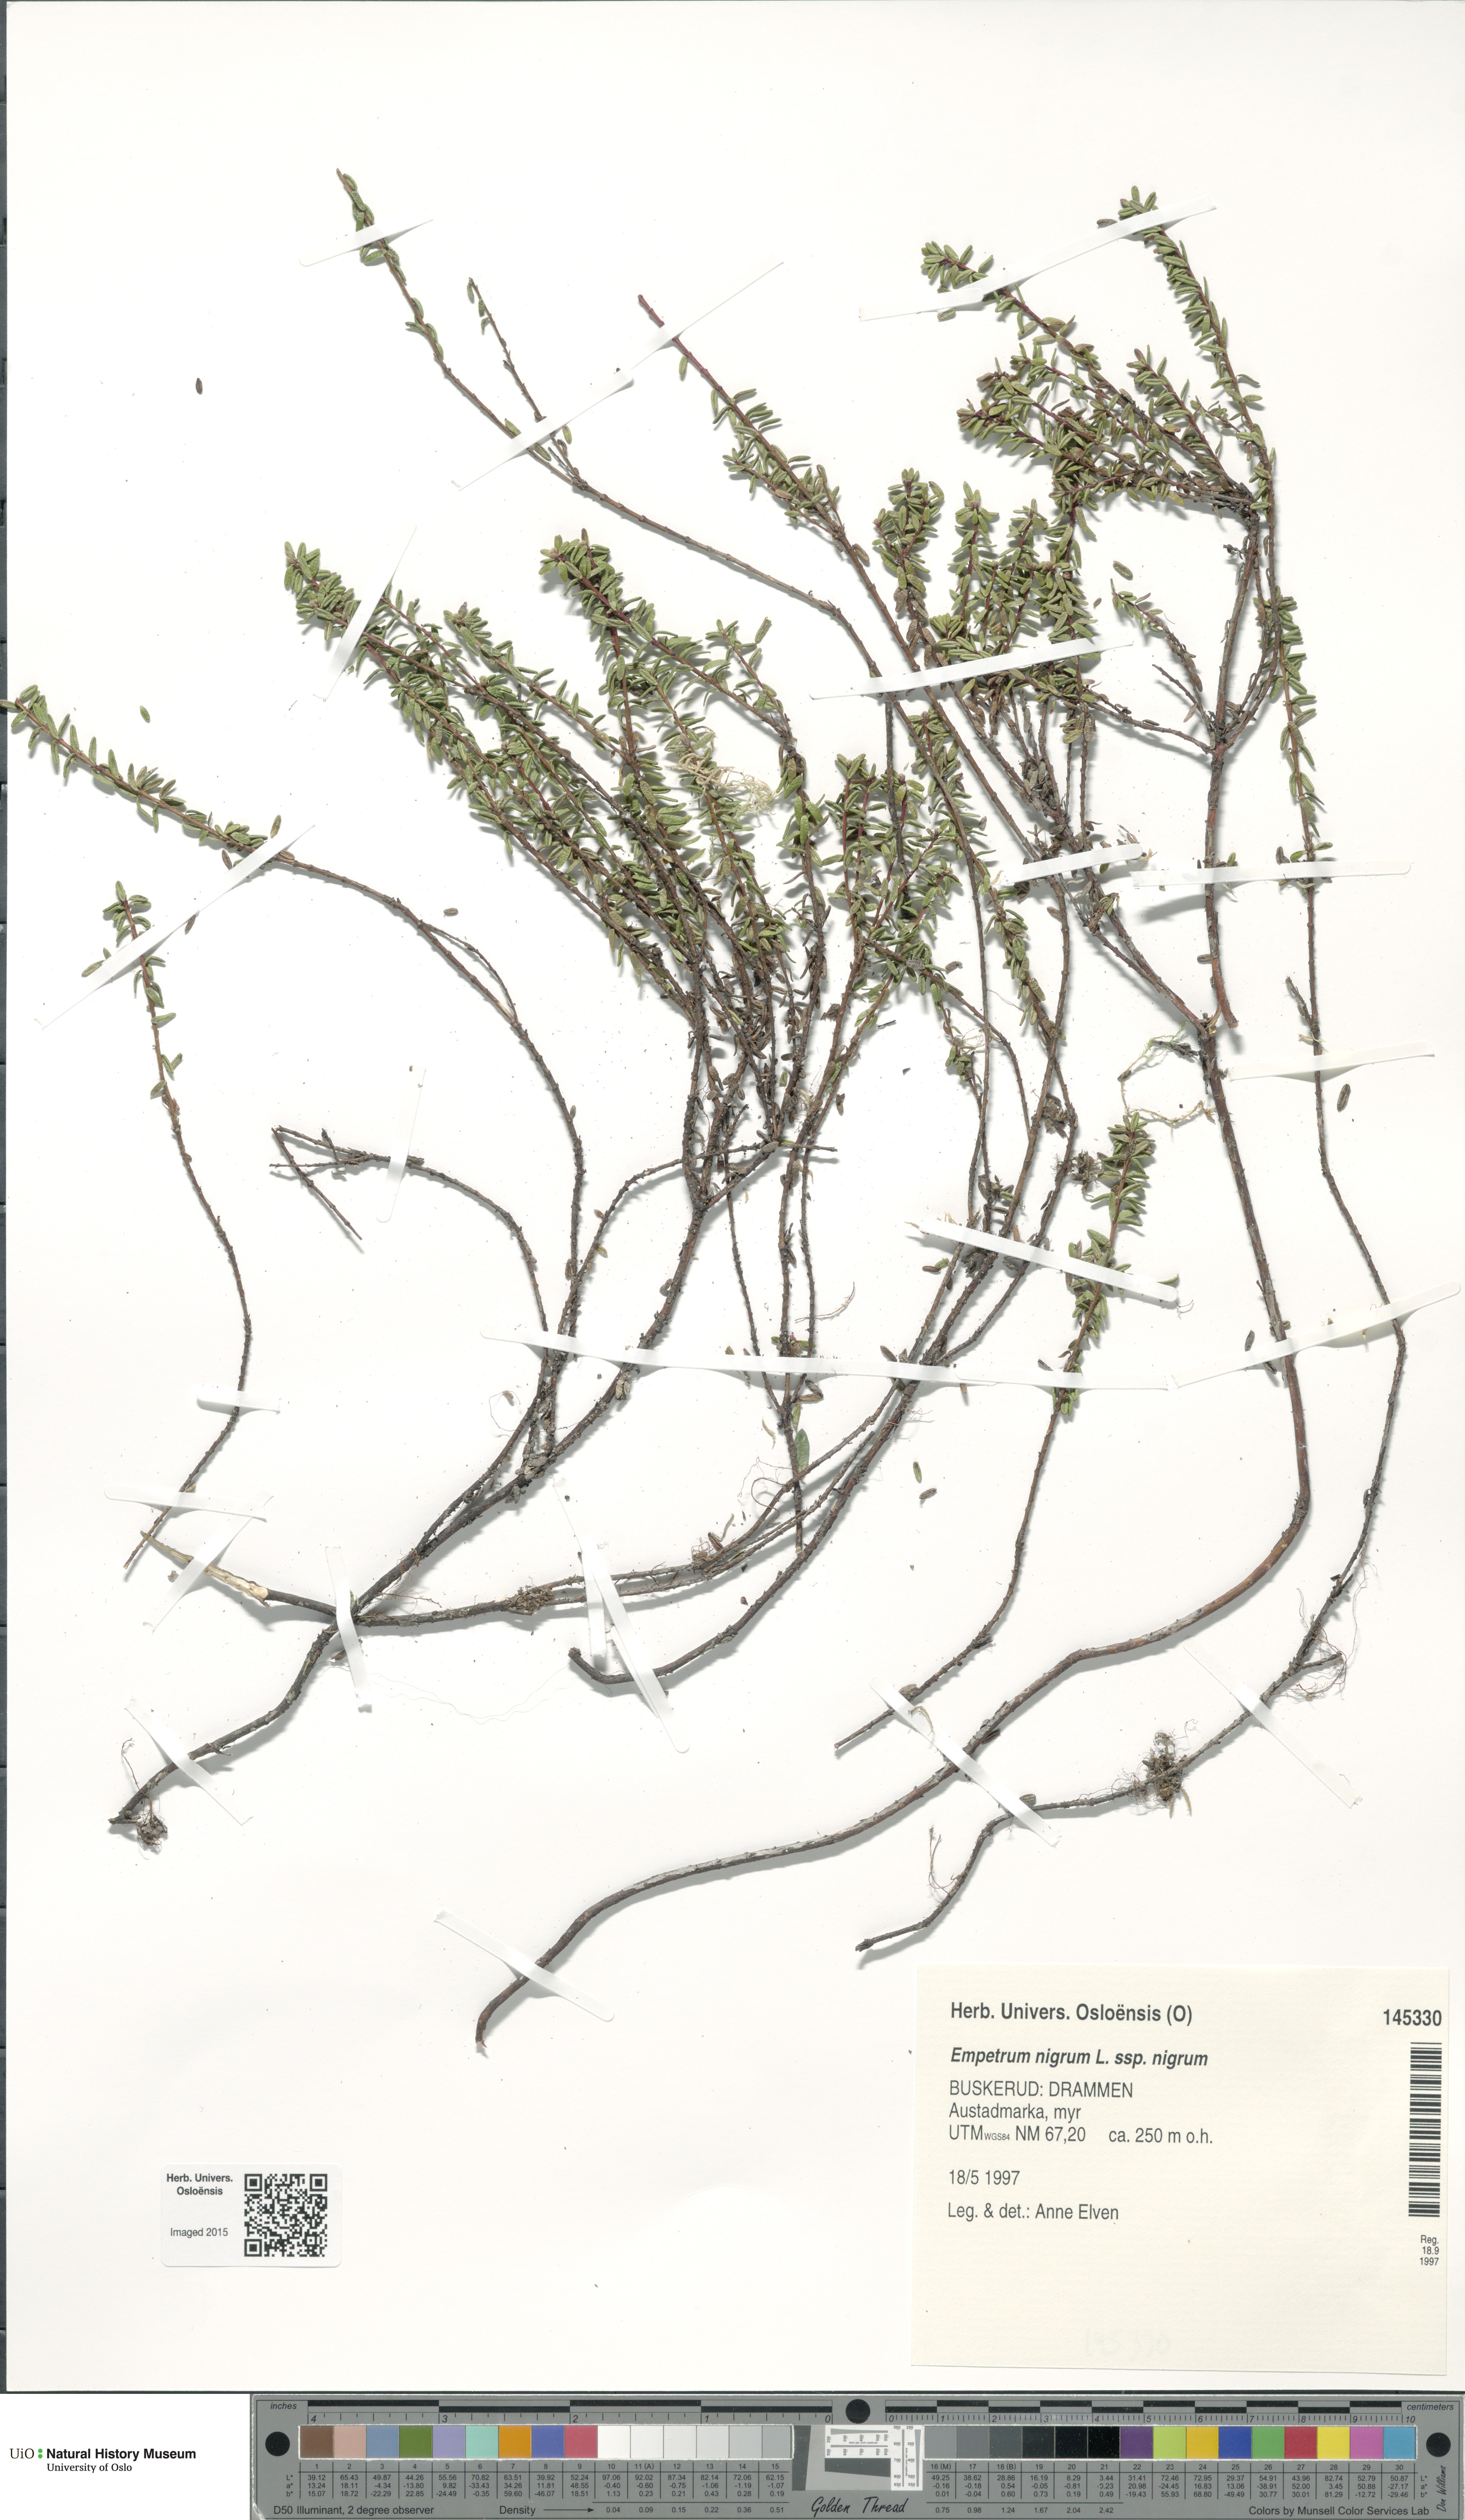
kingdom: Plantae
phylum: Tracheophyta
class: Magnoliopsida
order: Ericales
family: Ericaceae
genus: Empetrum
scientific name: Empetrum nigrum
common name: Black crowberry
